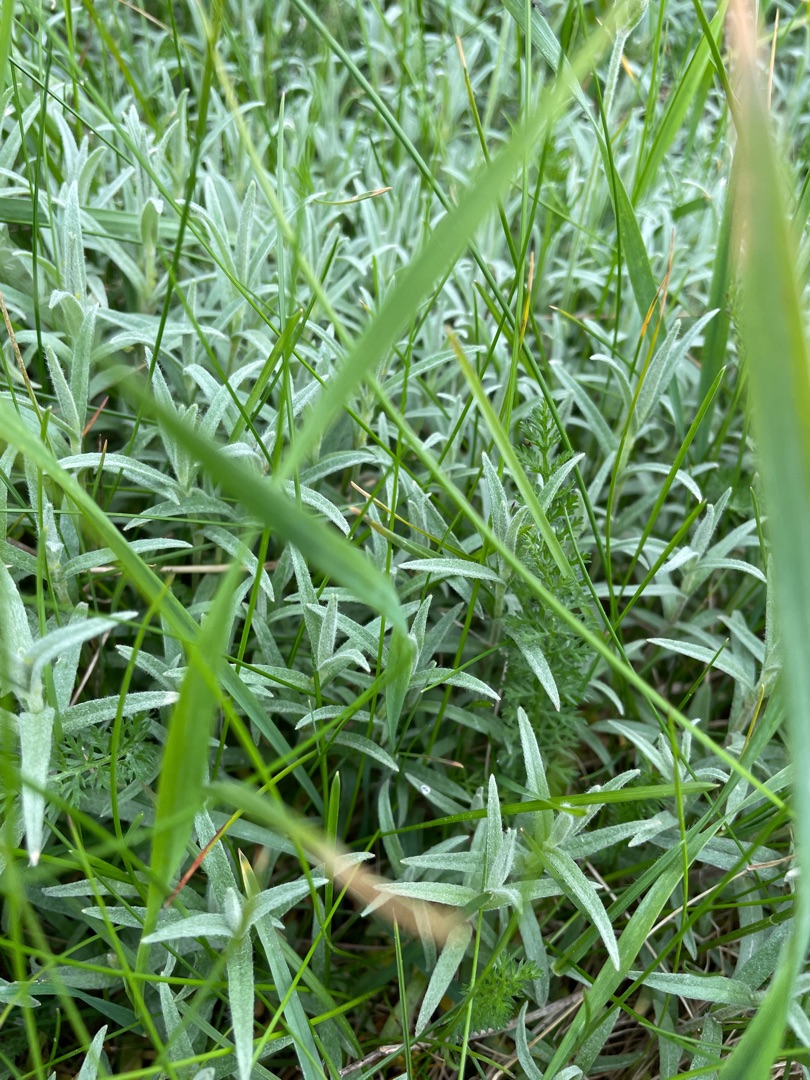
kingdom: Plantae
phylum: Tracheophyta
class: Magnoliopsida
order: Caryophyllales
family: Caryophyllaceae
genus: Cerastium
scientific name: Cerastium tomentosum
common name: Filtet hønsetarm
